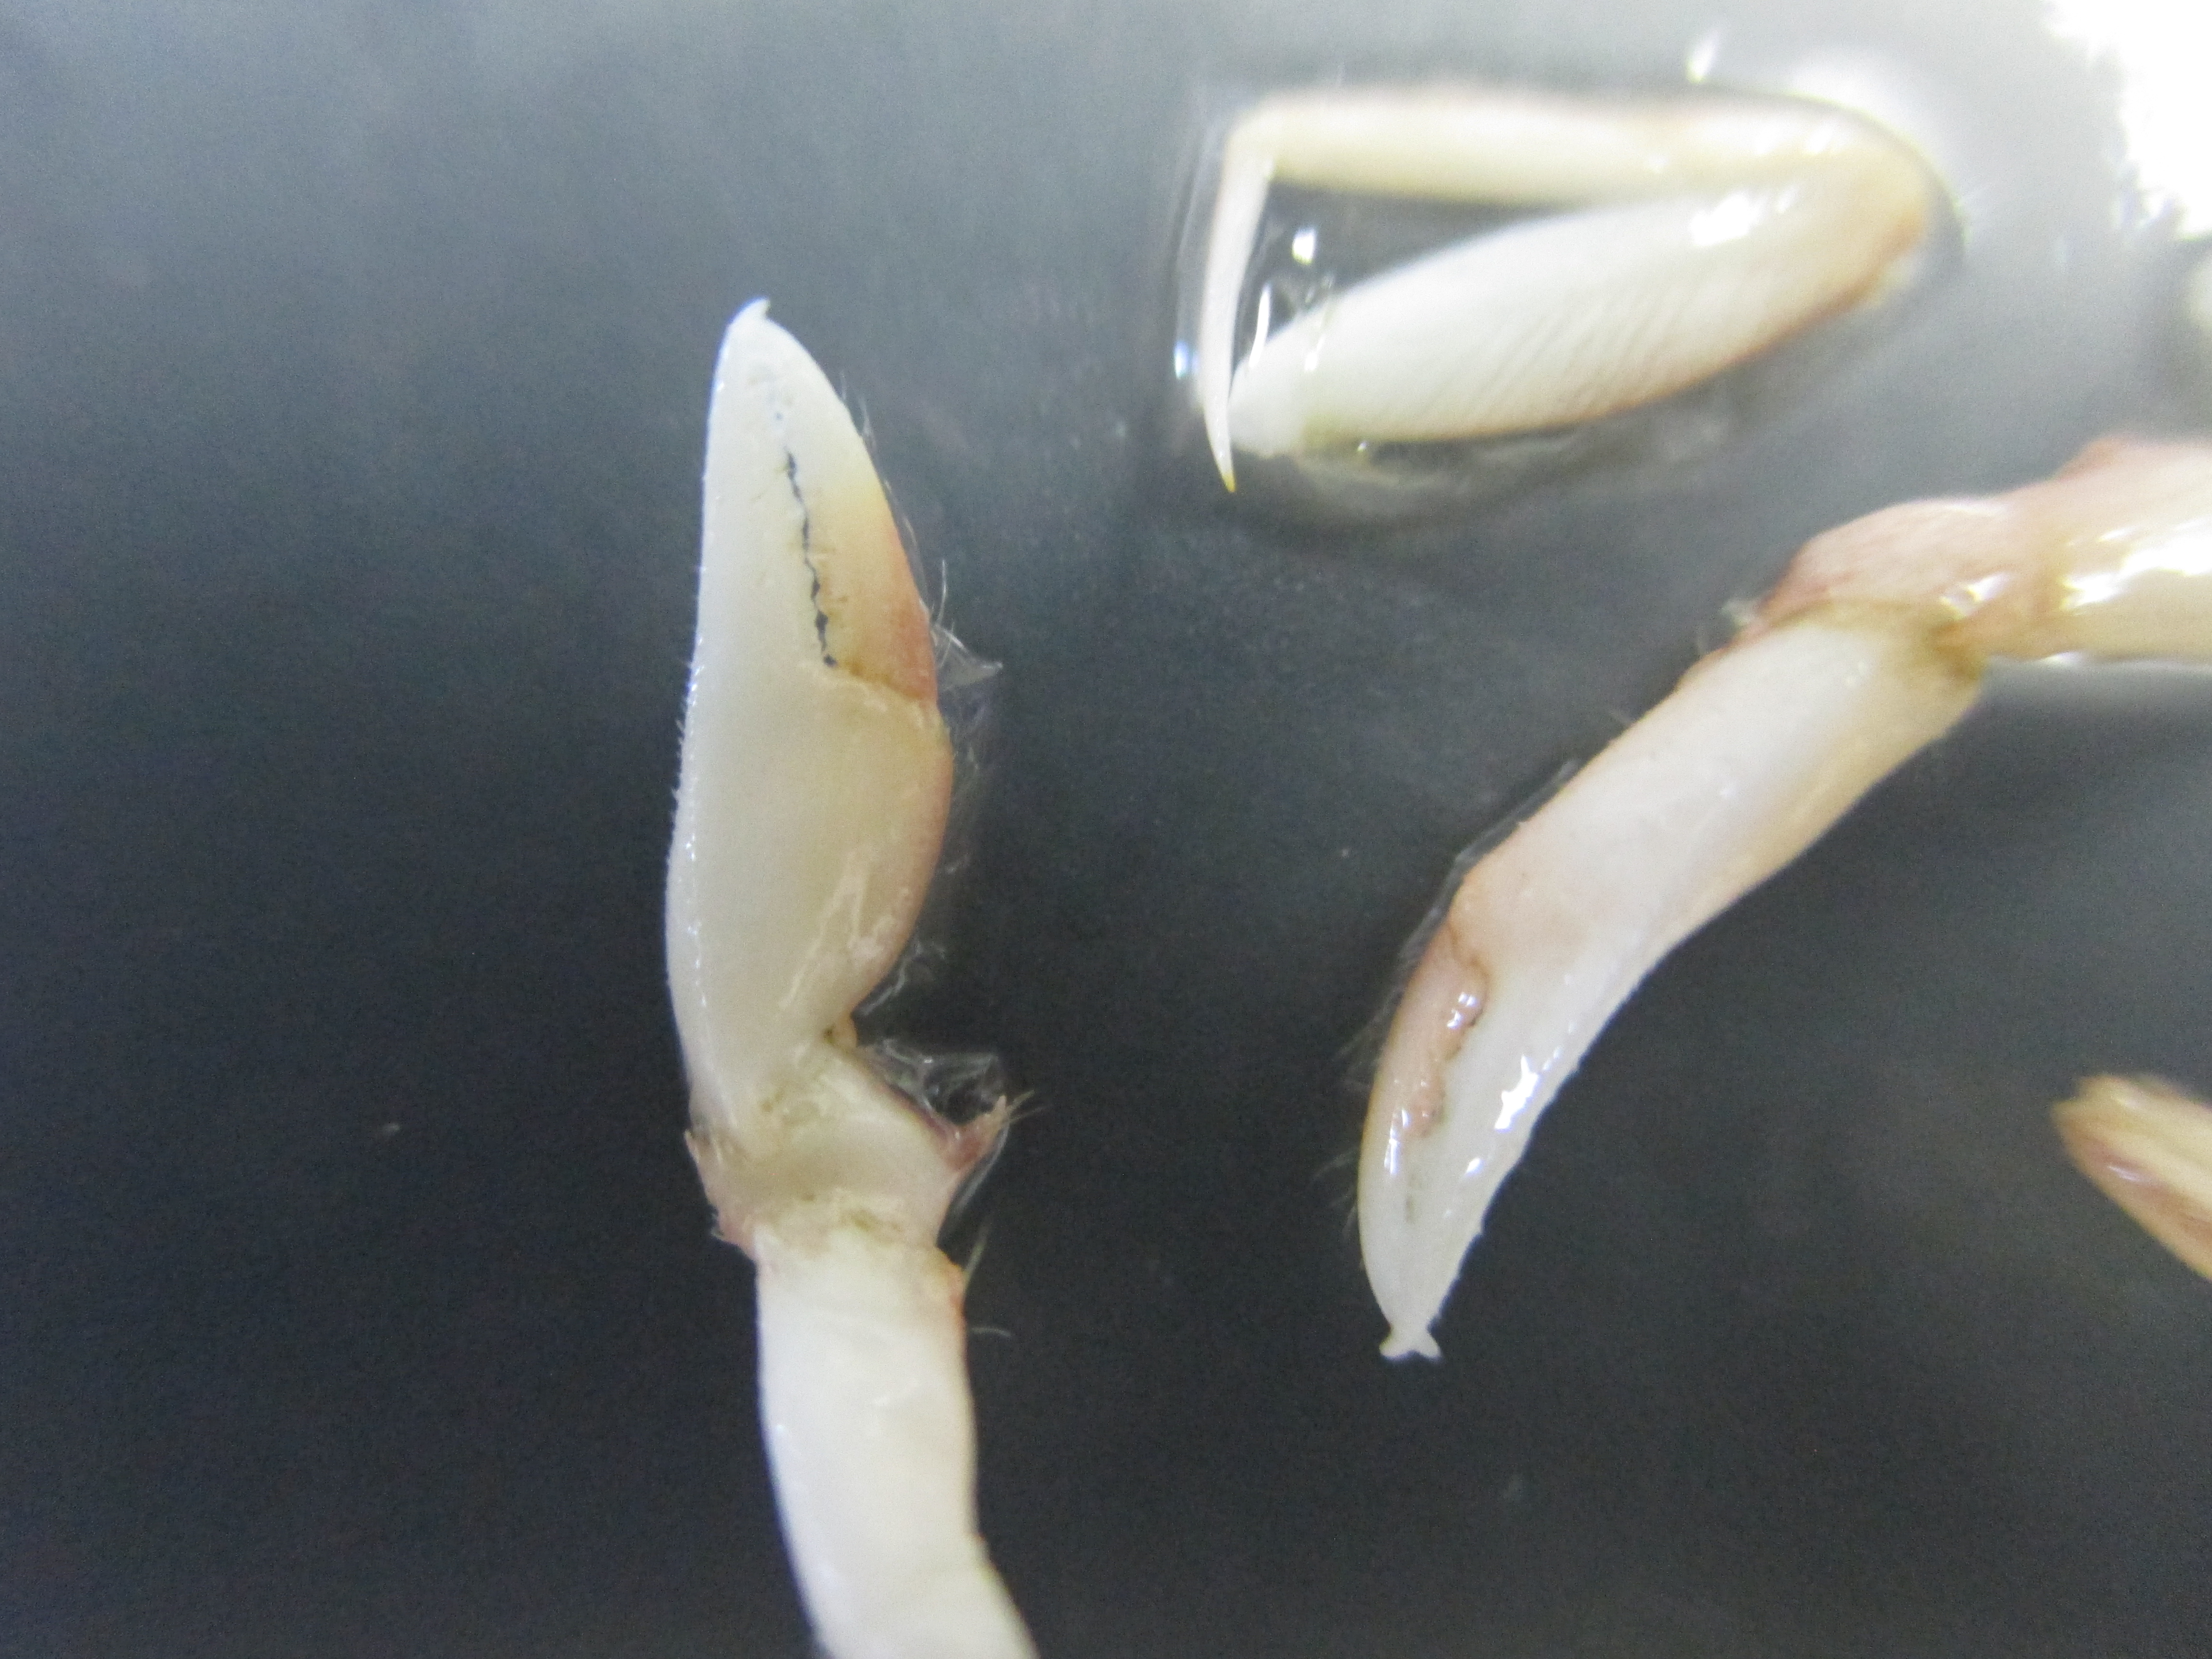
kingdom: Animalia
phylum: Arthropoda
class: Malacostraca
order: Decapoda
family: Goneplacidae
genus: Goneplax
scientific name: Goneplax clevai
